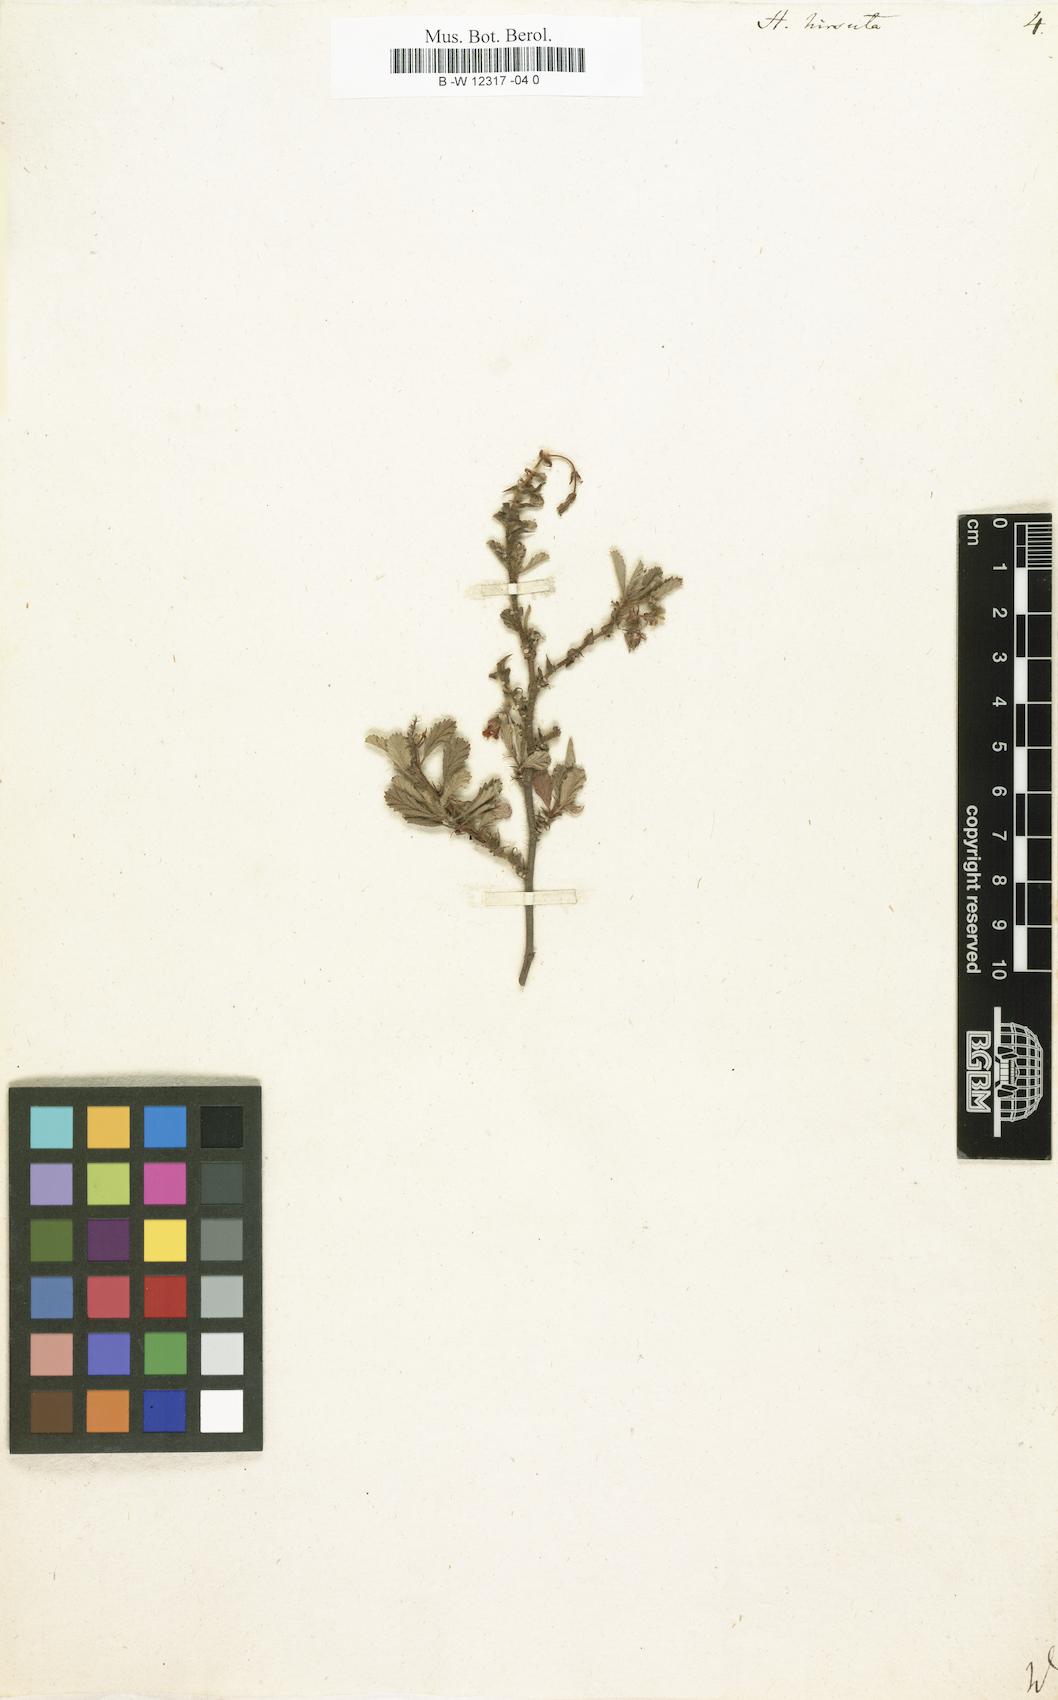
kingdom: Plantae
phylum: Tracheophyta
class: Magnoliopsida
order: Malvales
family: Malvaceae
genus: Hermannia
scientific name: Hermannia
